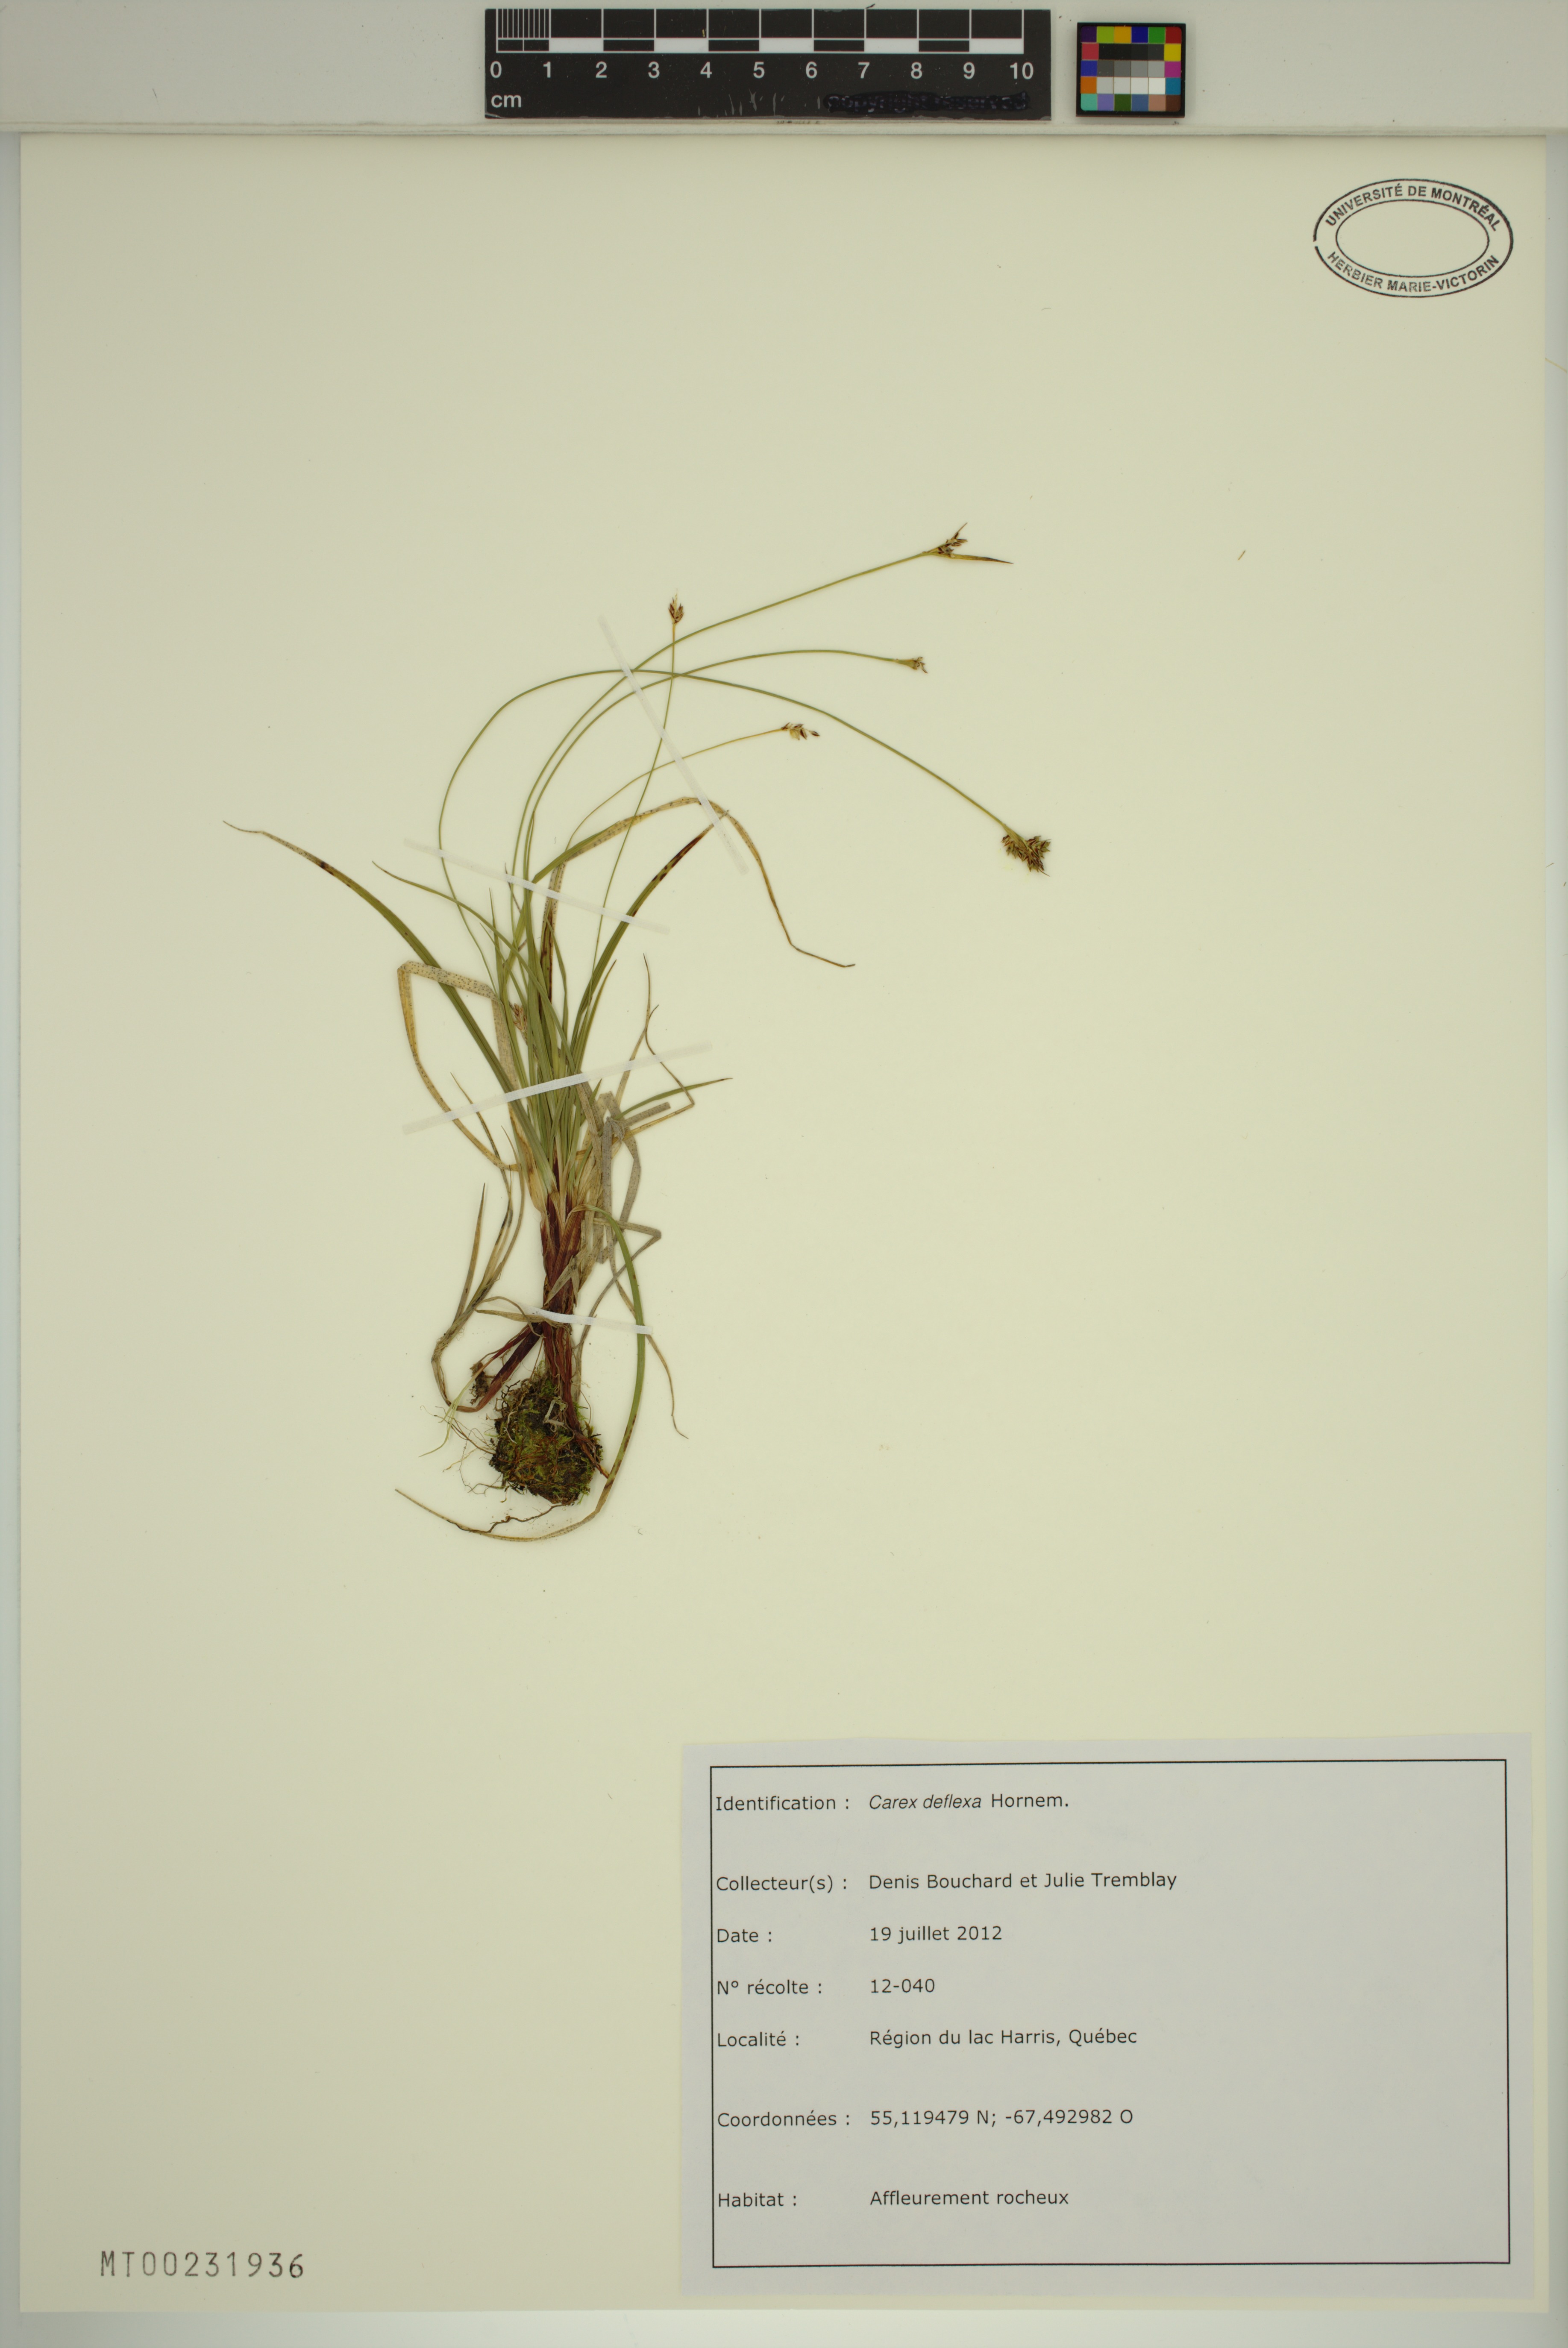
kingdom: Plantae
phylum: Tracheophyta
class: Liliopsida
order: Poales
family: Cyperaceae
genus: Carex
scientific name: Carex deflexa
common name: Bent northern sedge
